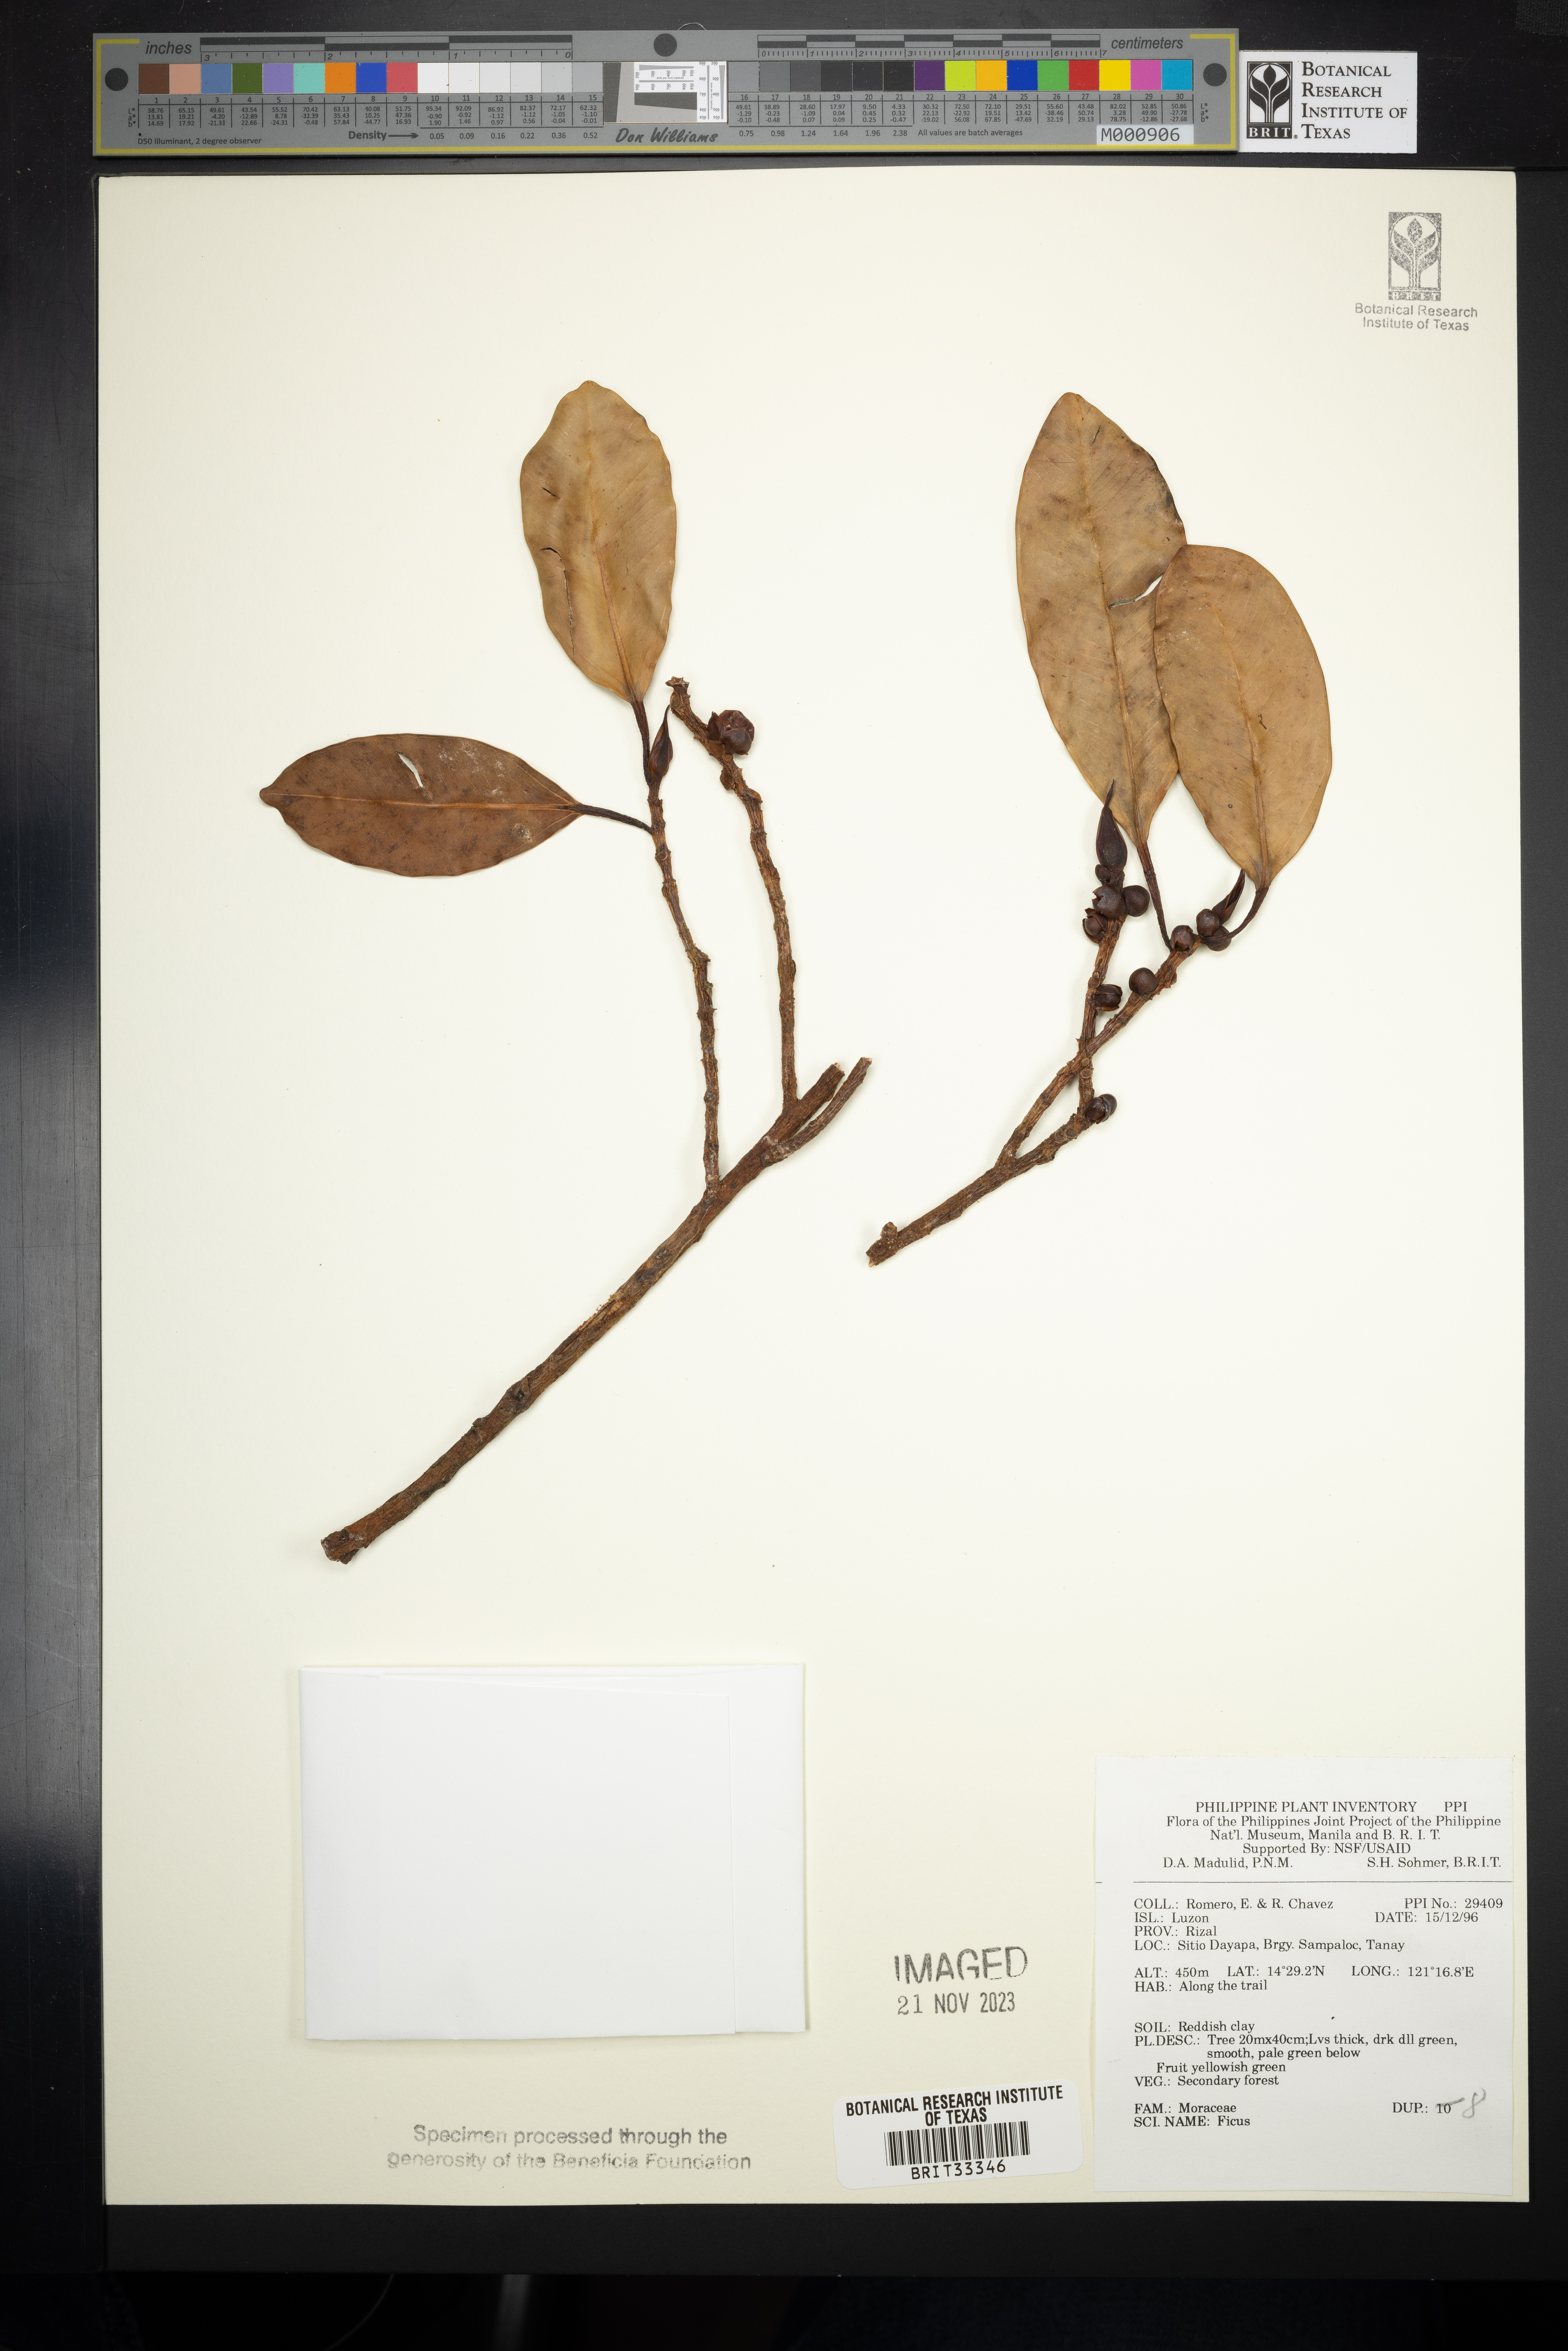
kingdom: Plantae
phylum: Tracheophyta
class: Magnoliopsida
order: Rosales
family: Moraceae
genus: Ficus
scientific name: Ficus
